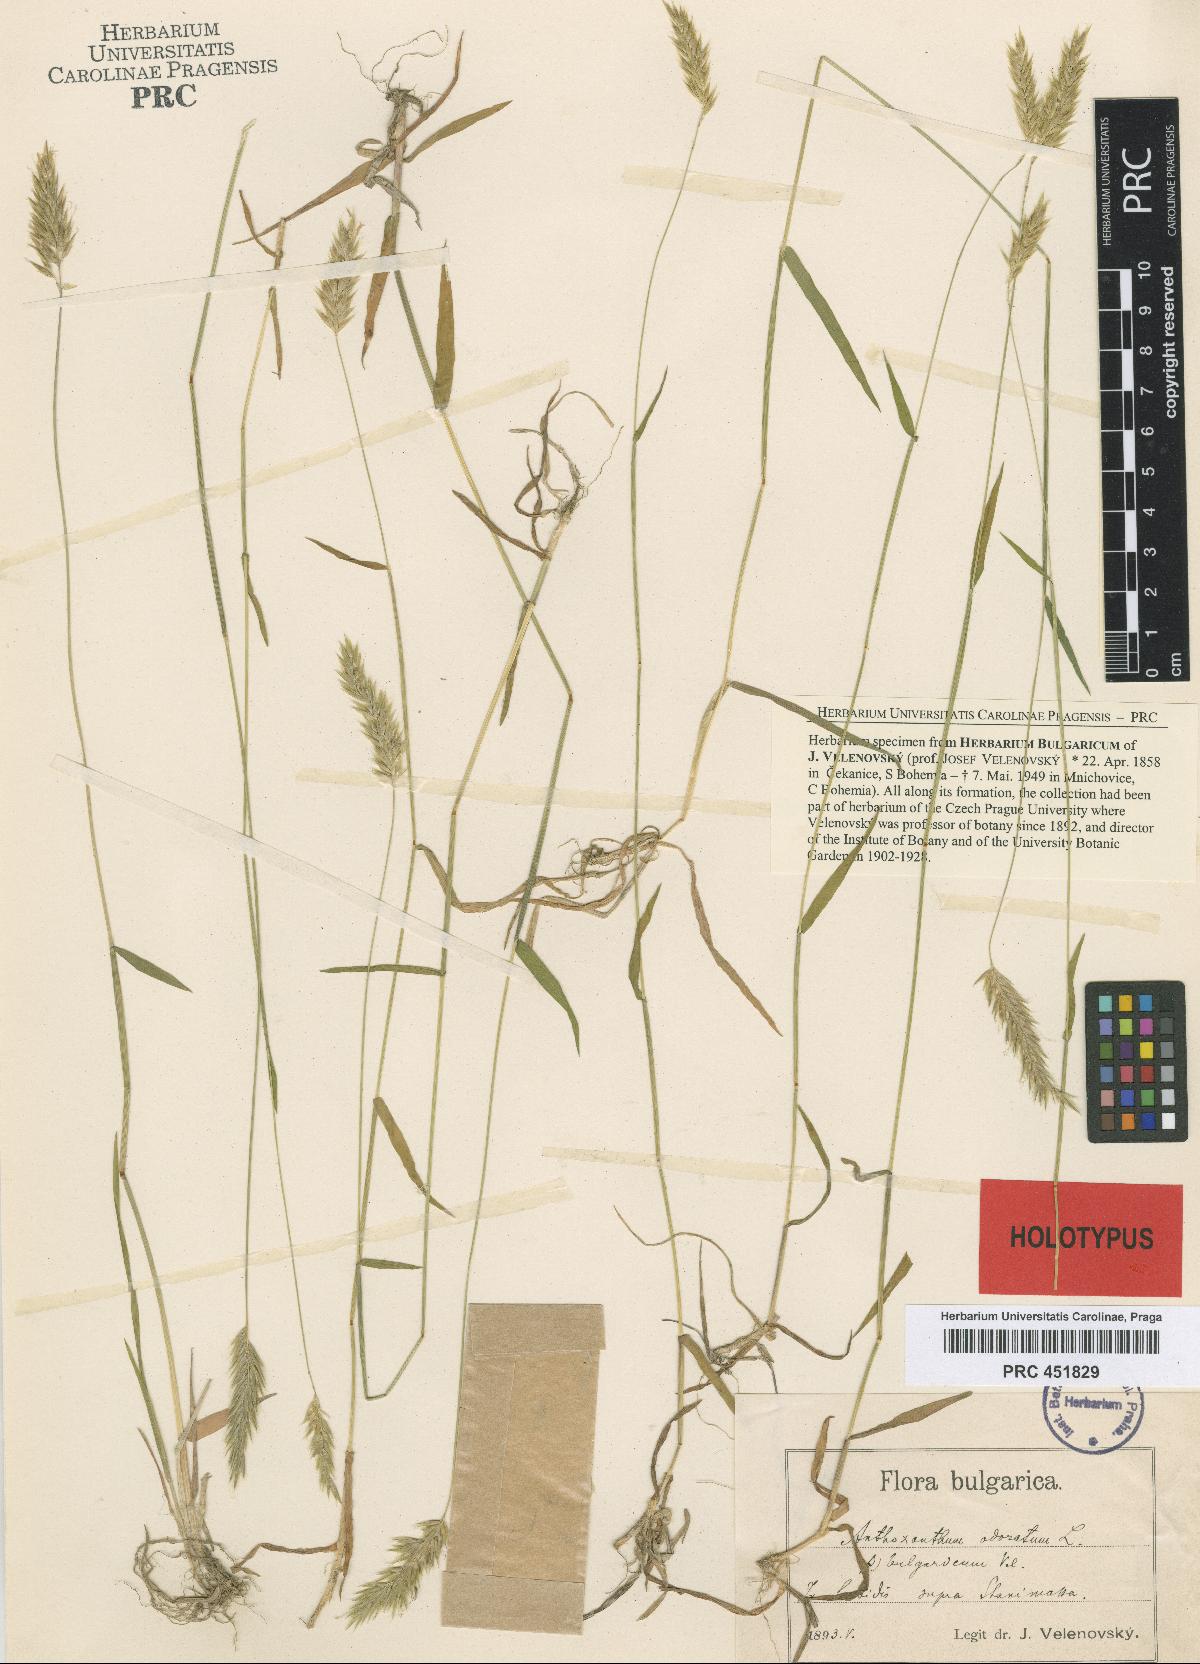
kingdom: Plantae
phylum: Tracheophyta
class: Liliopsida
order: Poales
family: Poaceae
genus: Anthoxanthum
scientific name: Anthoxanthum odoratum
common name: Sweet vernalgrass
